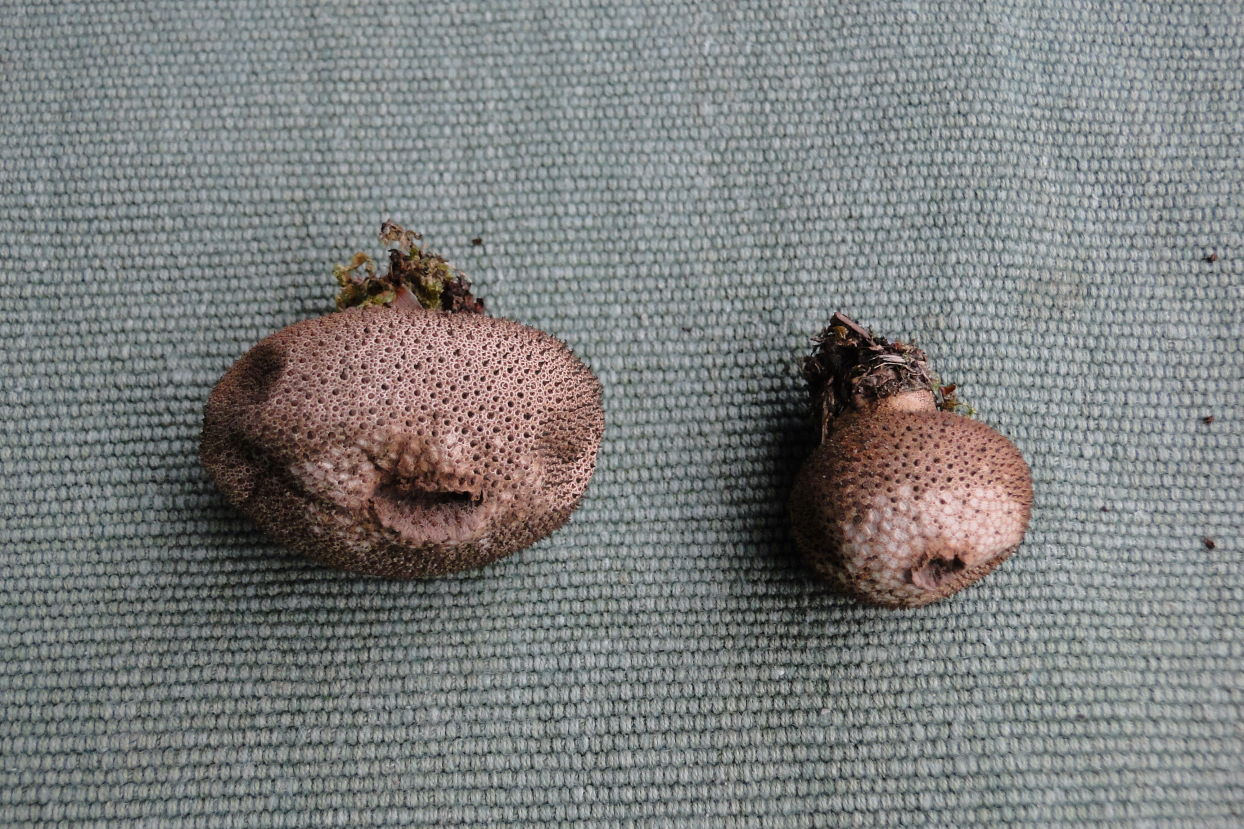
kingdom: Fungi
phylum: Basidiomycota
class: Agaricomycetes
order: Agaricales
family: Lycoperdaceae
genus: Lycoperdon
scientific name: Lycoperdon nigrescens
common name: sortagtig støvbold
